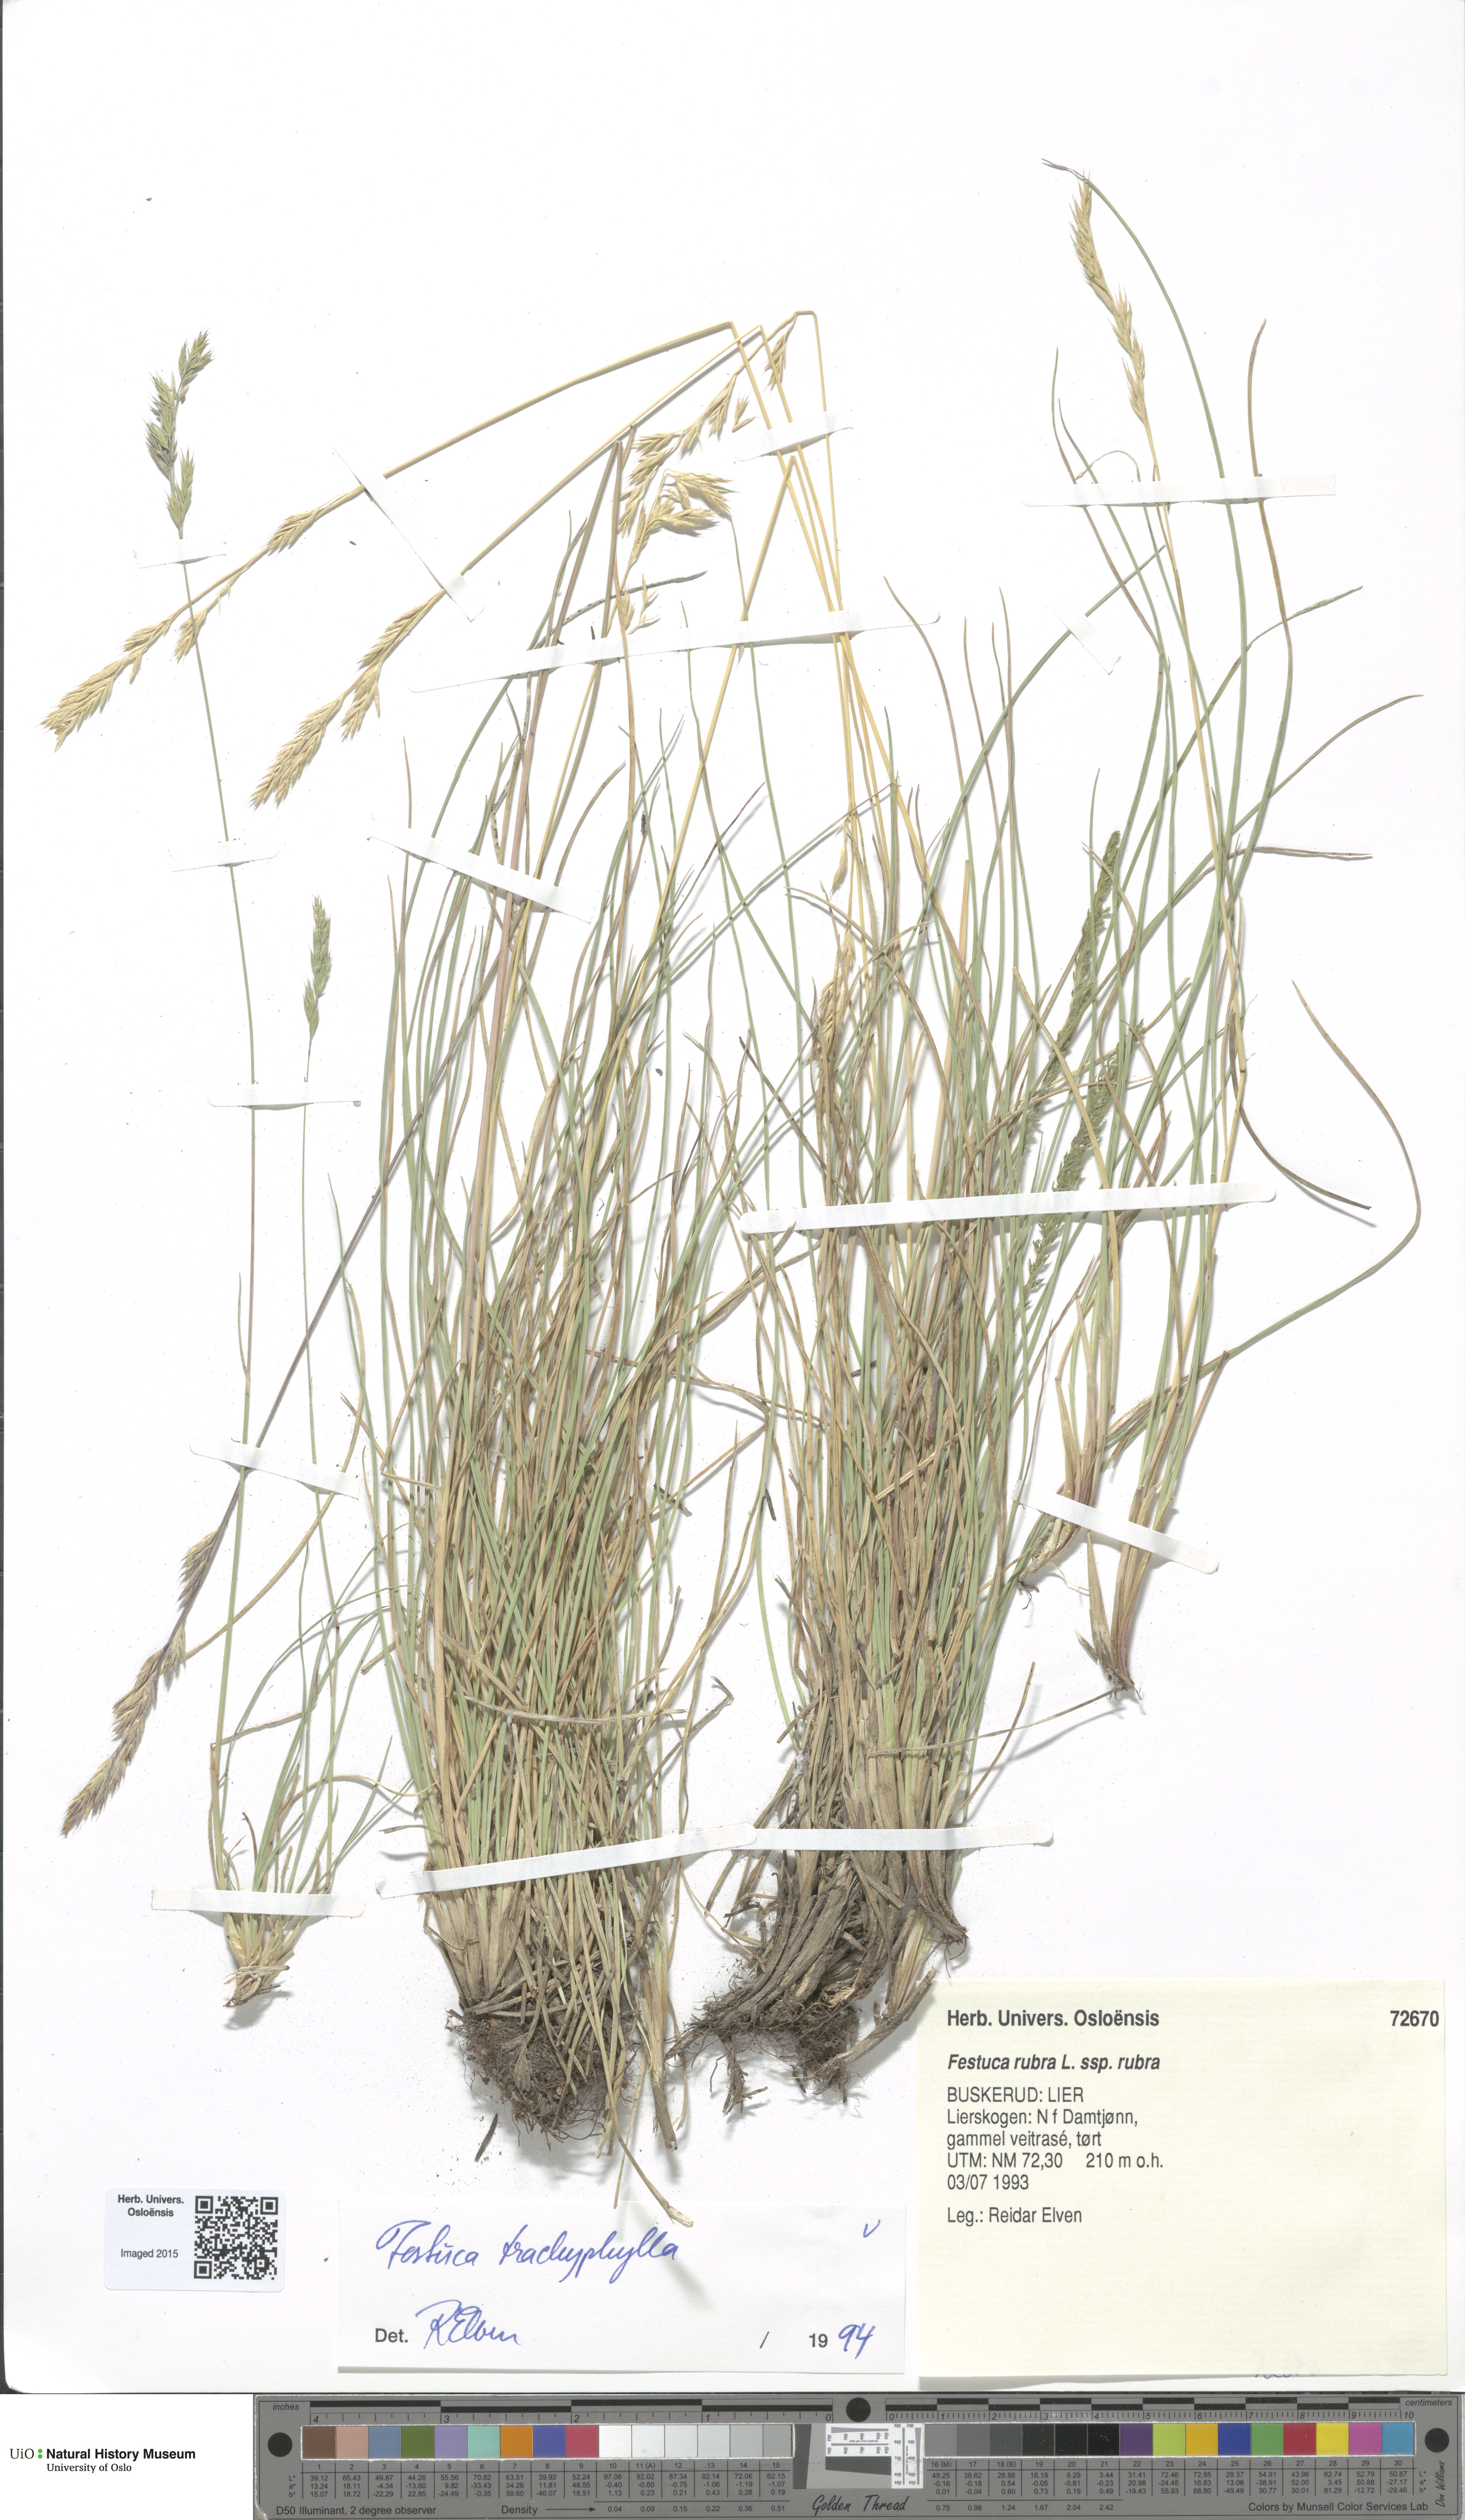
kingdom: Plantae
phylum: Tracheophyta
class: Liliopsida
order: Poales
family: Poaceae
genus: Festuca
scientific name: Festuca trachyphylla
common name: Hard fescue
